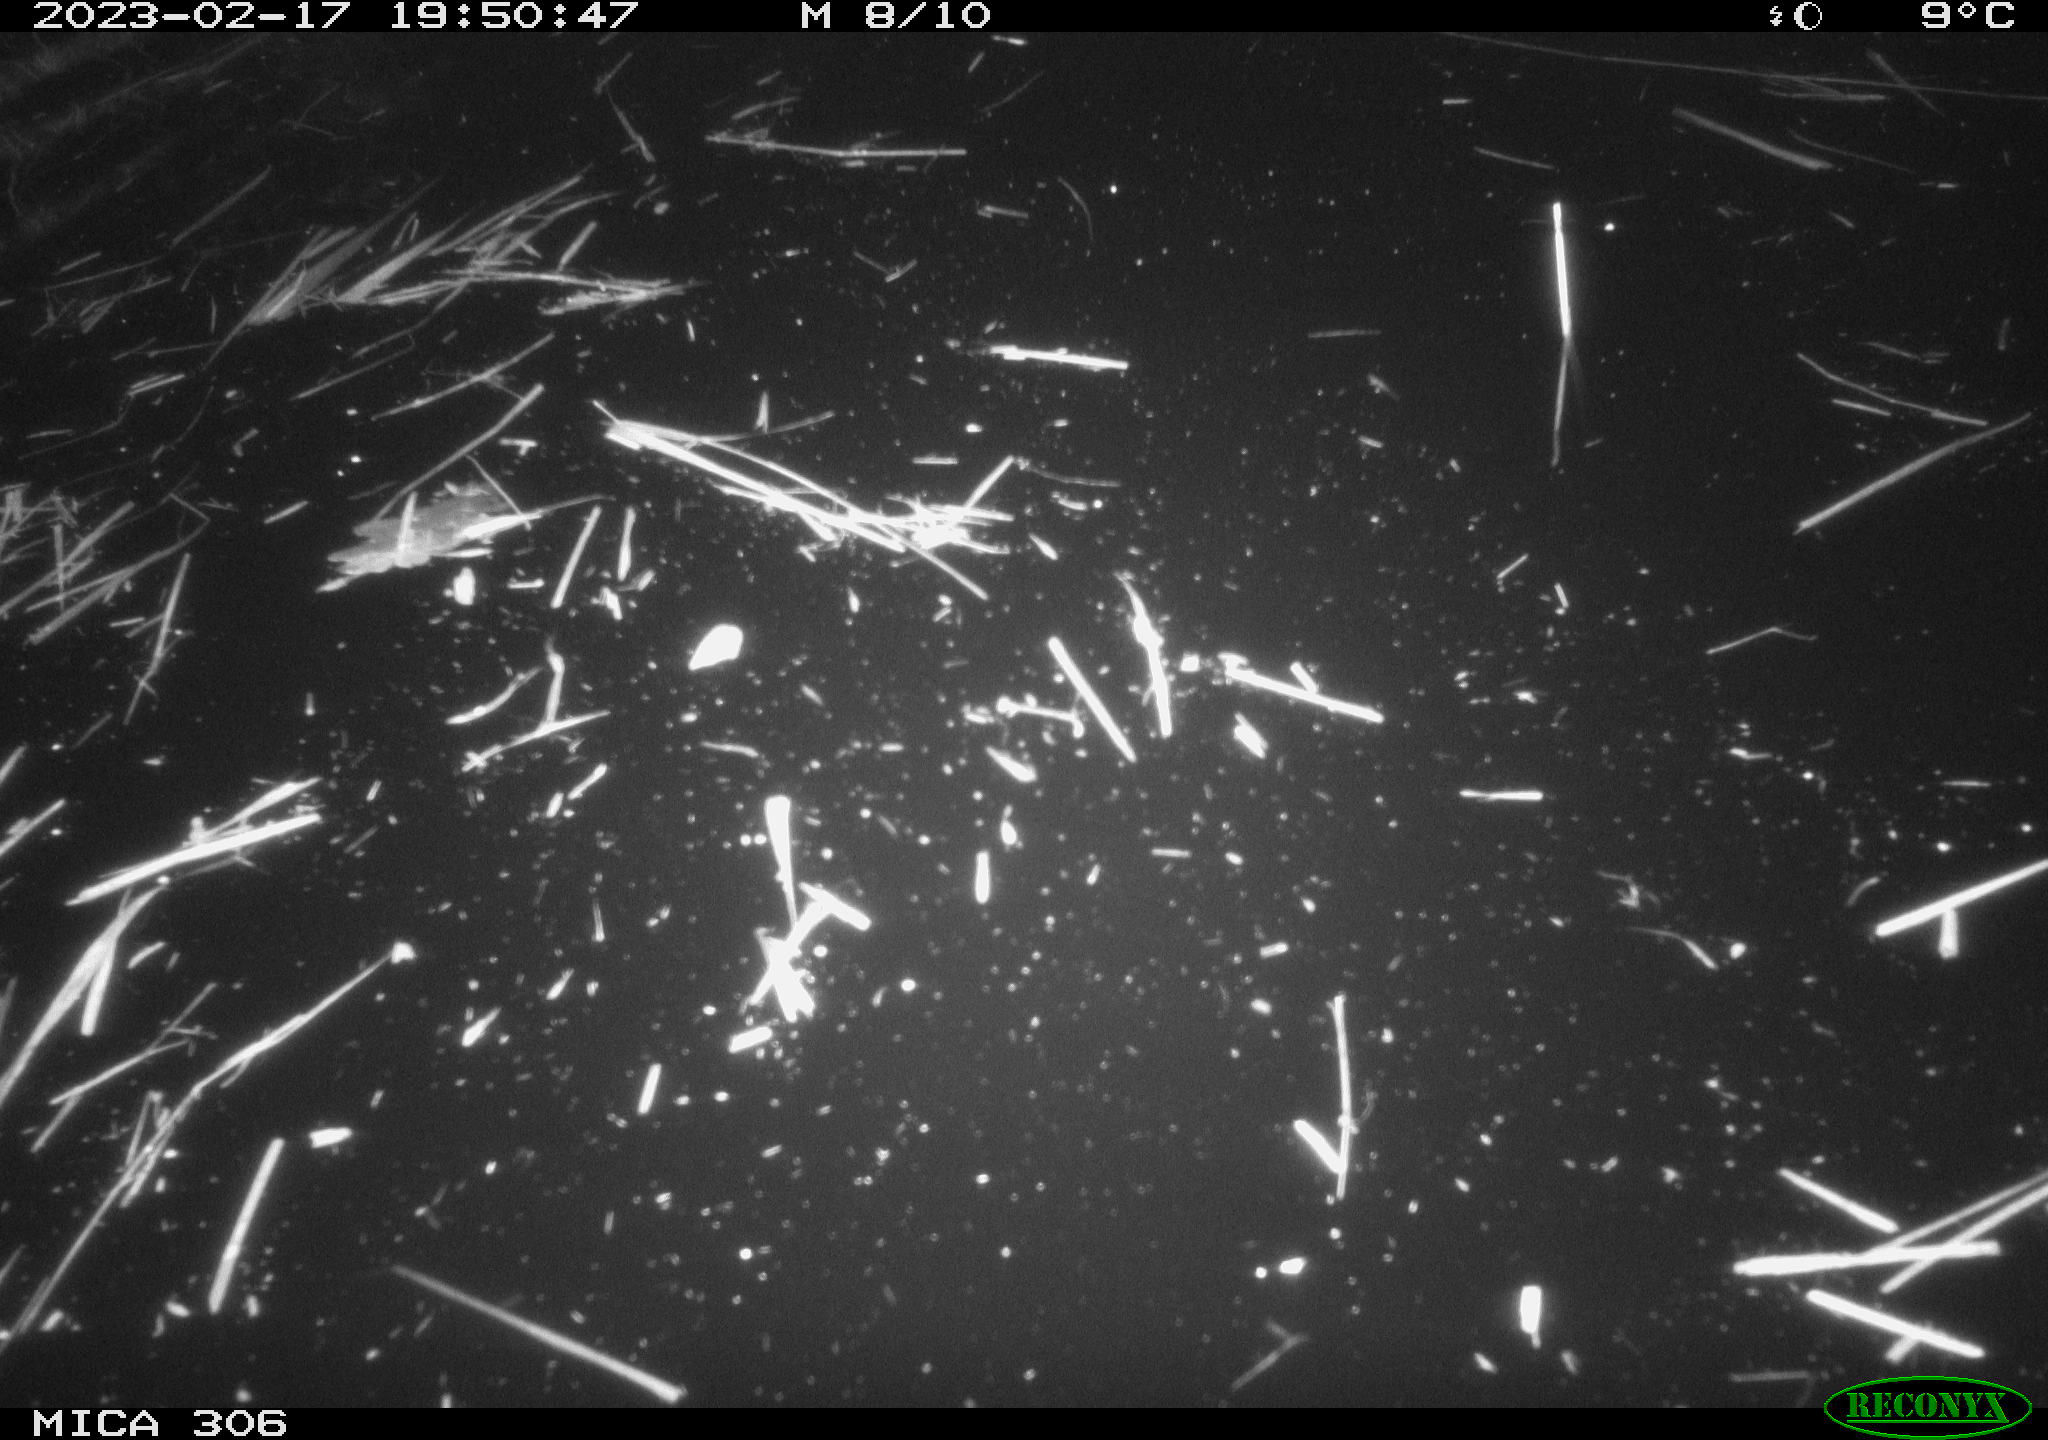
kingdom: Animalia
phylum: Chordata
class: Mammalia
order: Rodentia
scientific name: Rodentia
